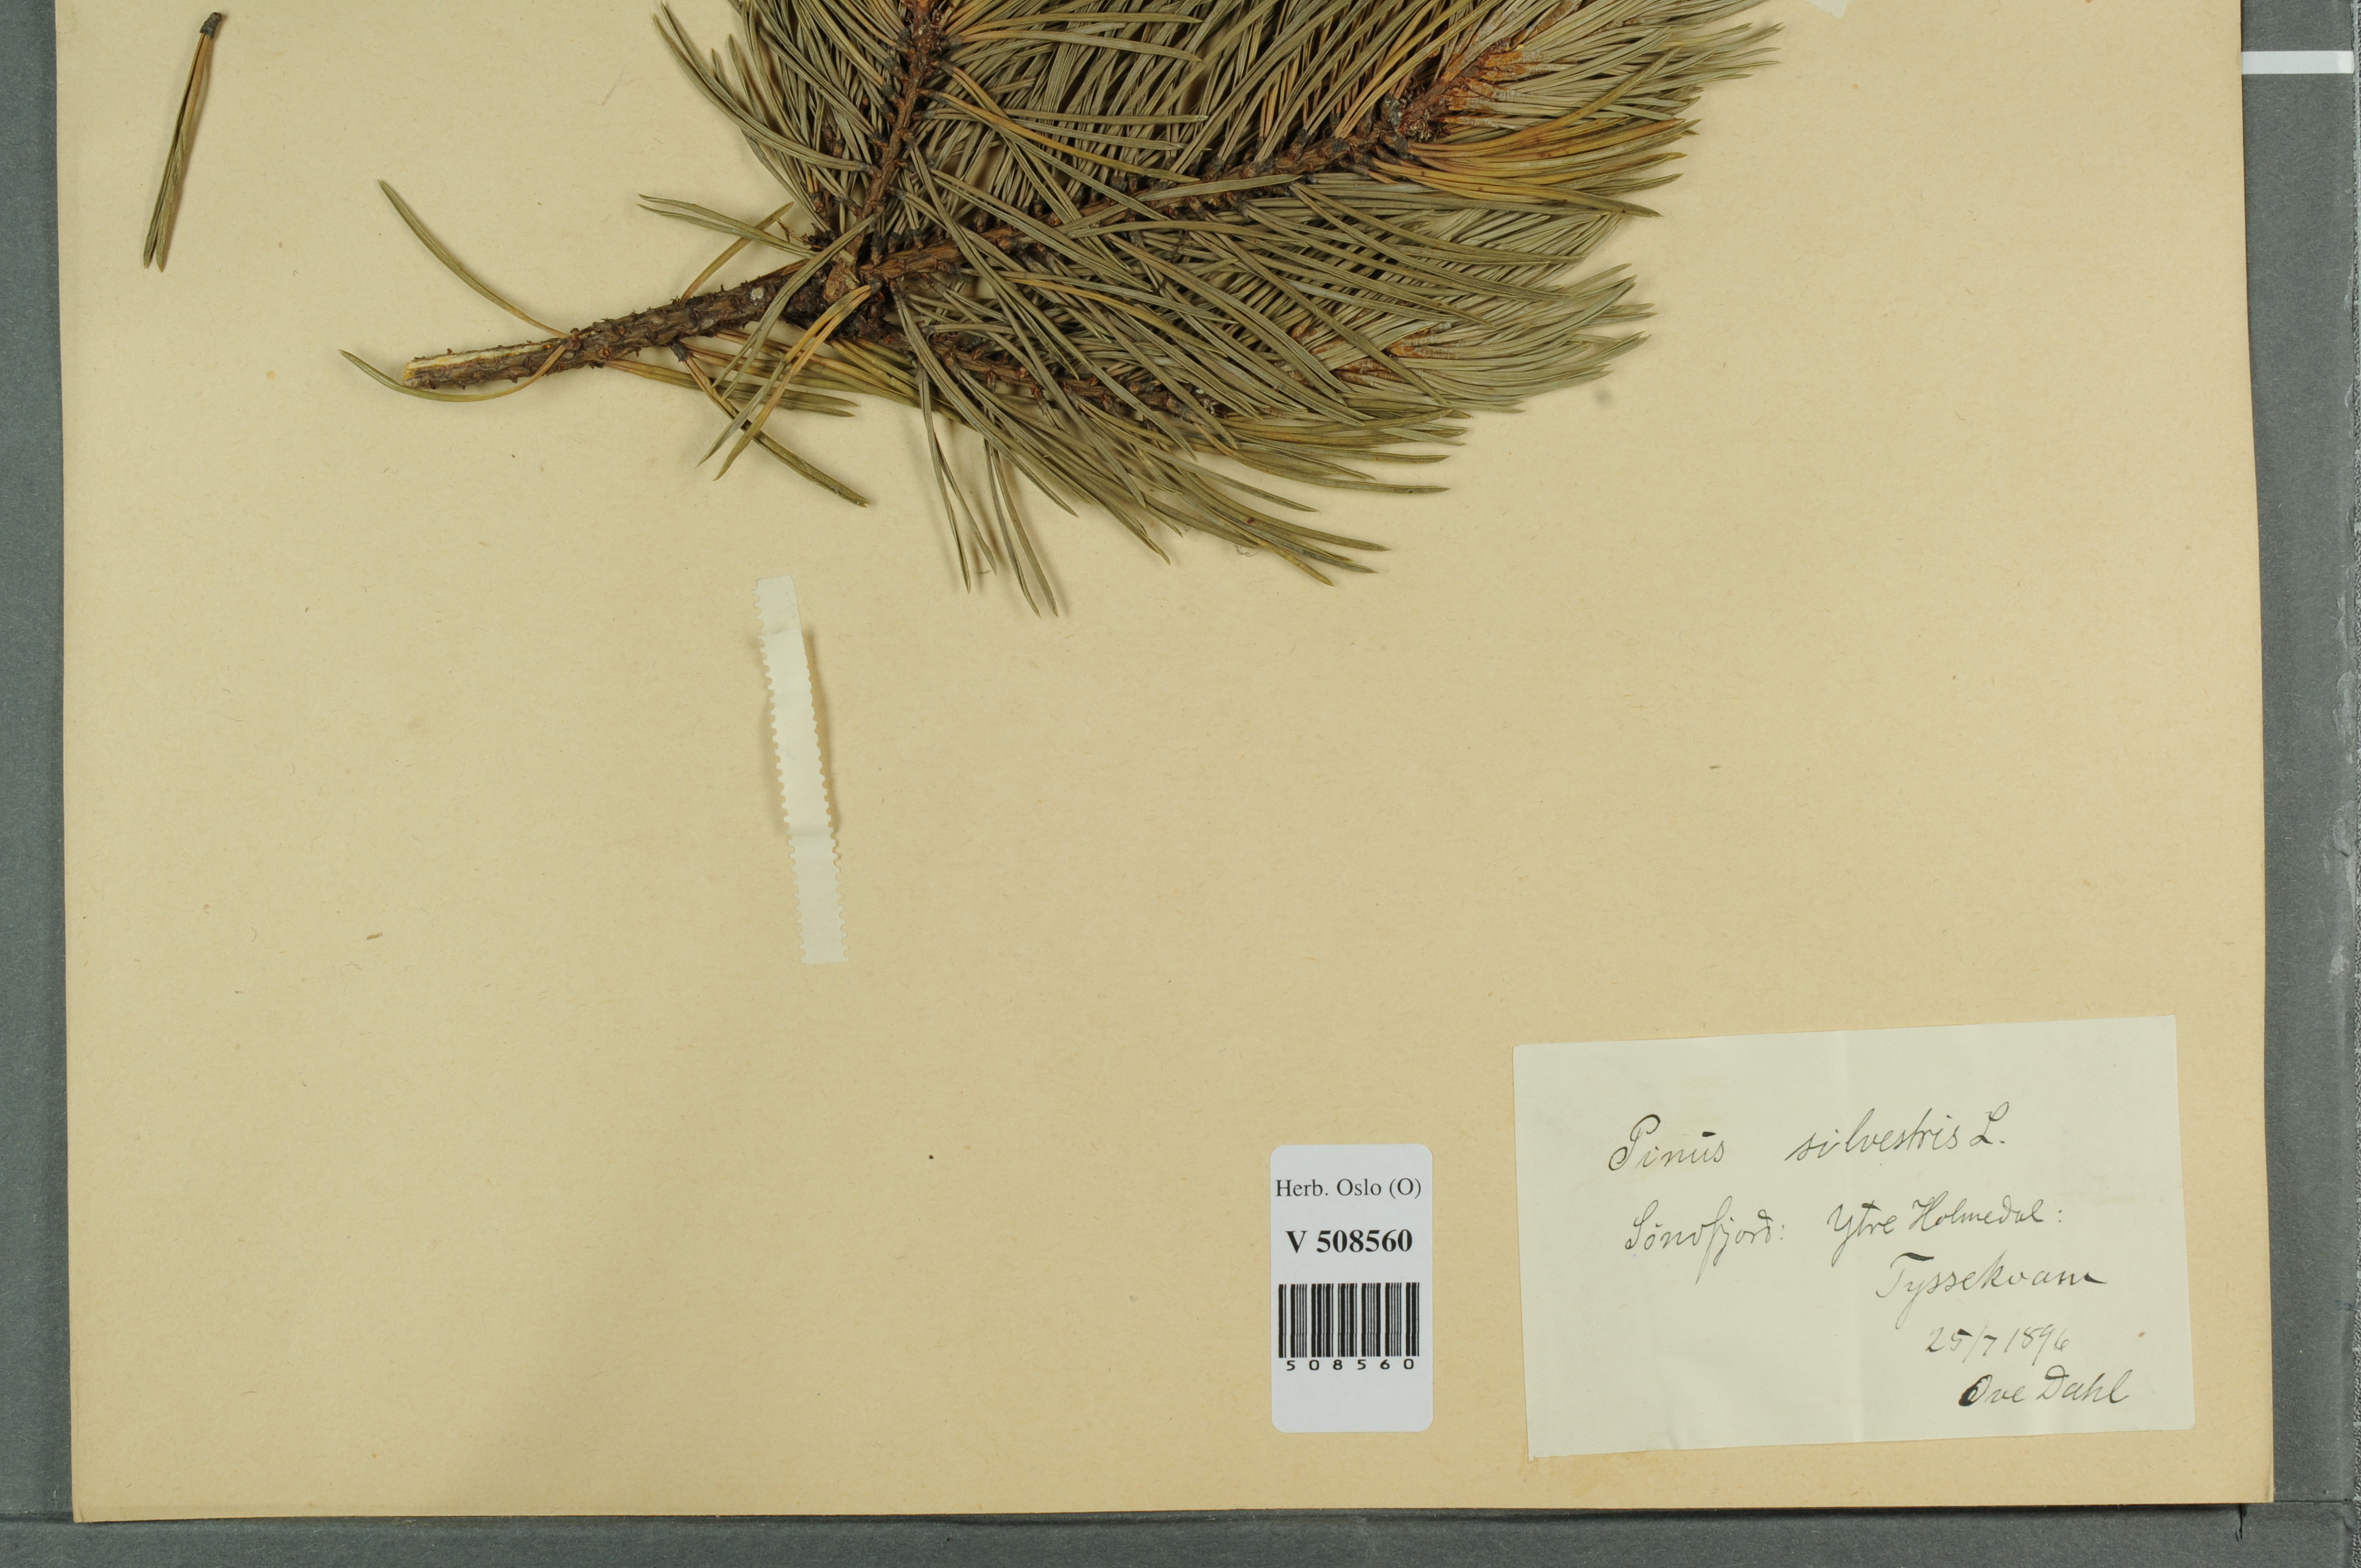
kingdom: Plantae
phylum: Tracheophyta
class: Pinopsida
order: Pinales
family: Pinaceae
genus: Pinus
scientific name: Pinus sylvestris
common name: Scots pine
